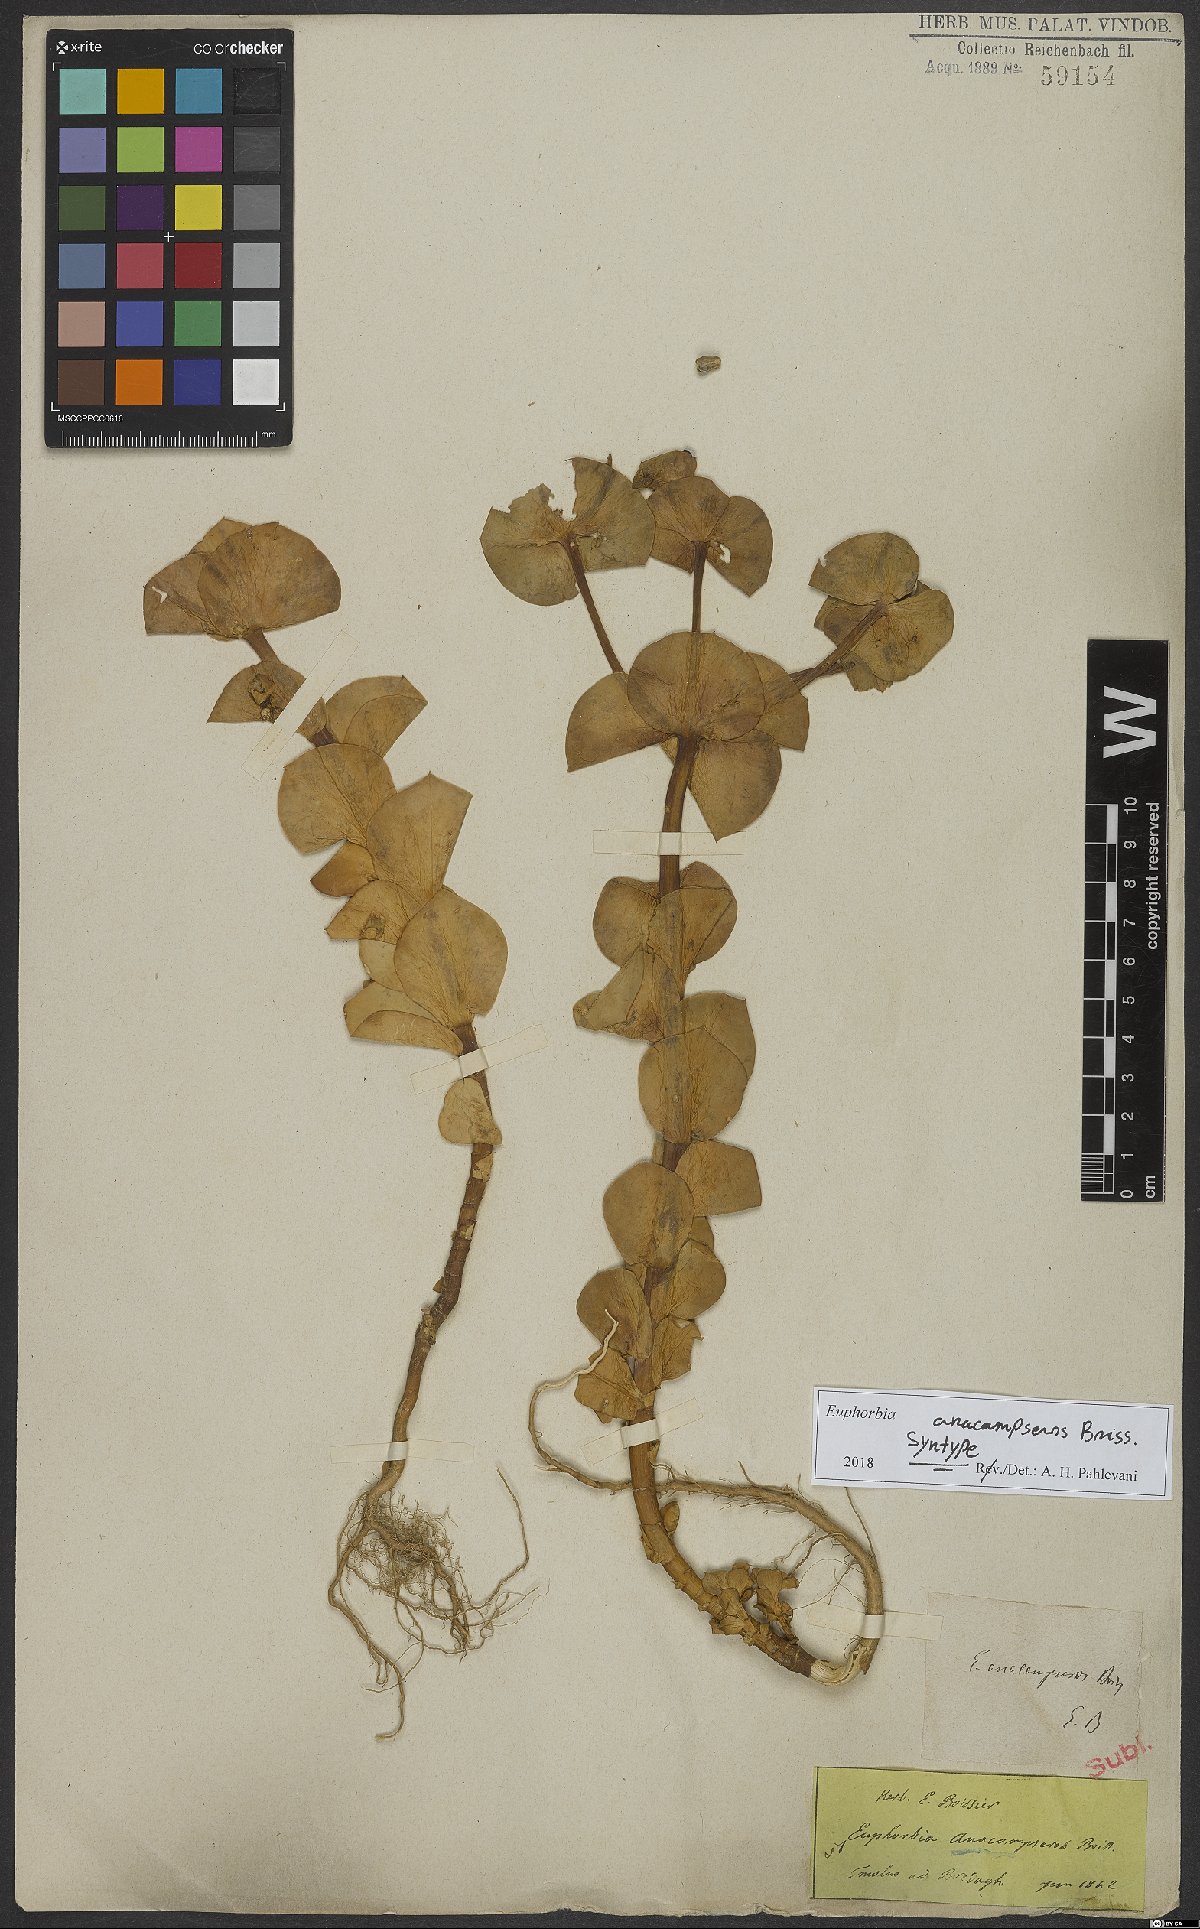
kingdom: Plantae
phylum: Tracheophyta
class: Magnoliopsida
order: Malpighiales
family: Euphorbiaceae
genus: Euphorbia
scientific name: Euphorbia anacampseros
